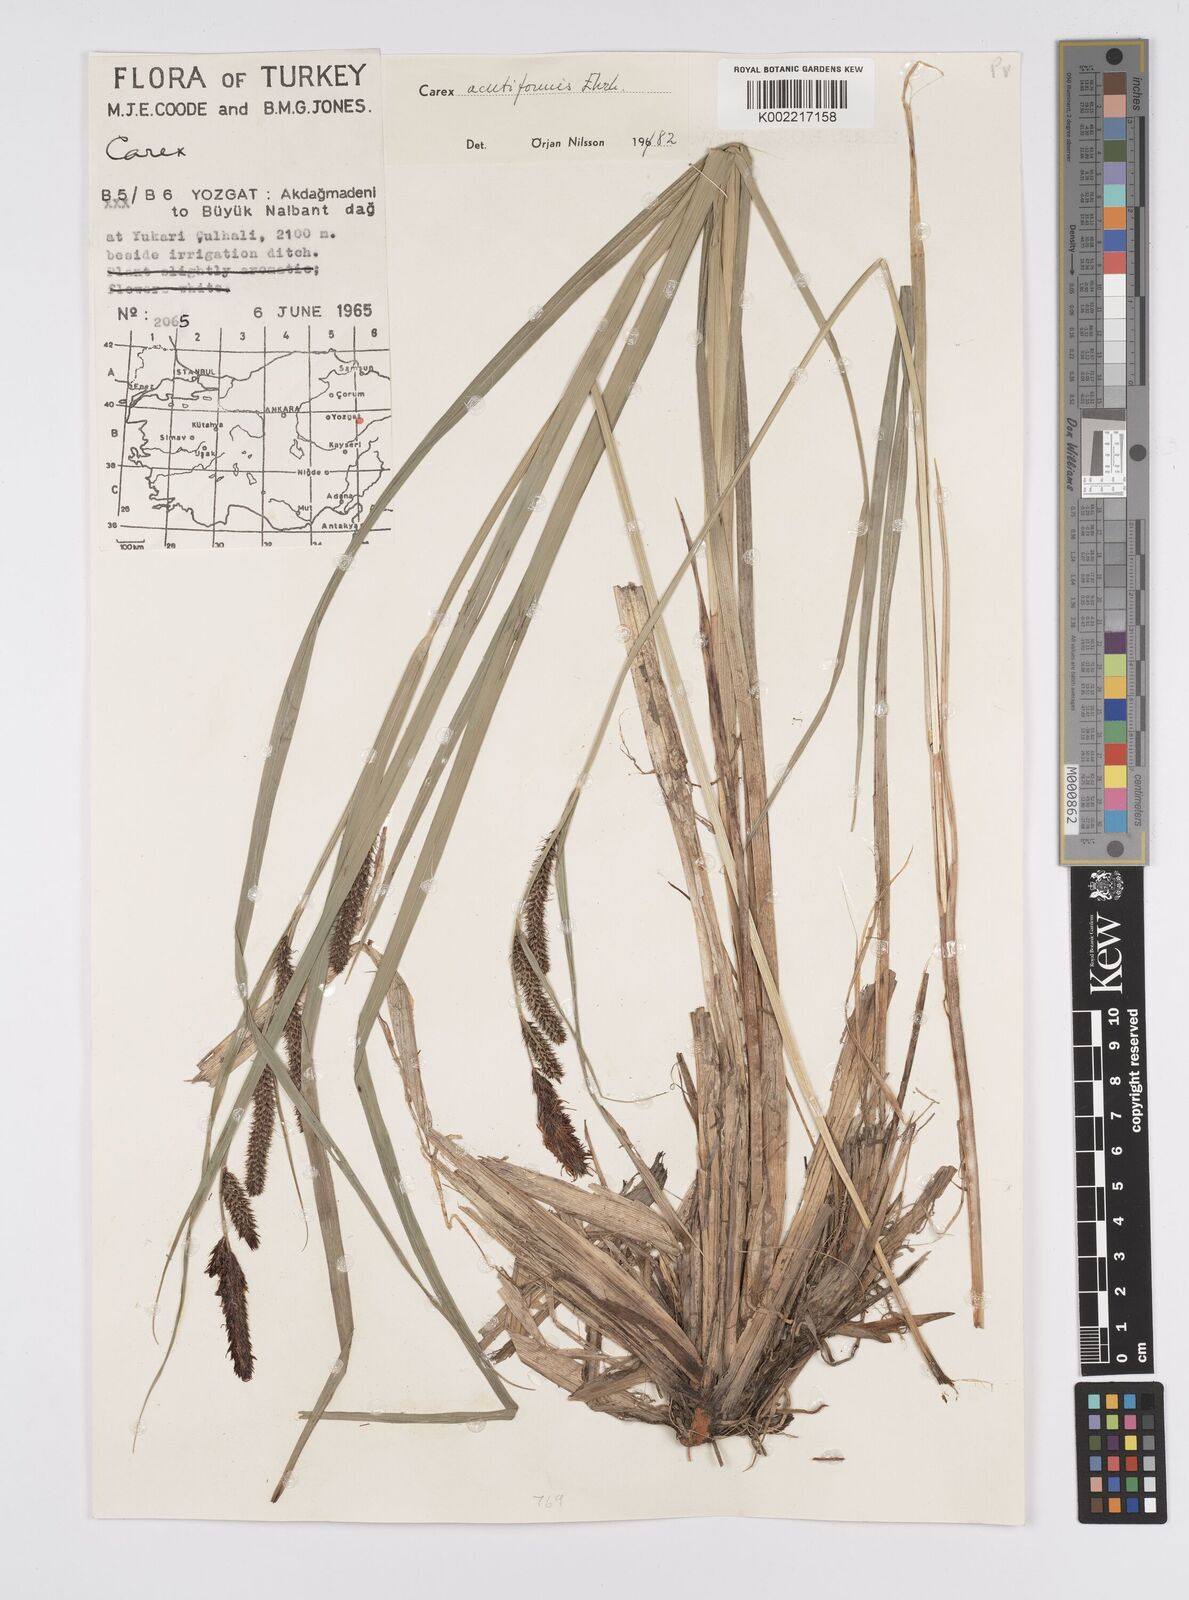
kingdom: Plantae
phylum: Tracheophyta
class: Liliopsida
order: Poales
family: Cyperaceae
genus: Carex
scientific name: Carex acutiformis
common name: Lesser pond-sedge
